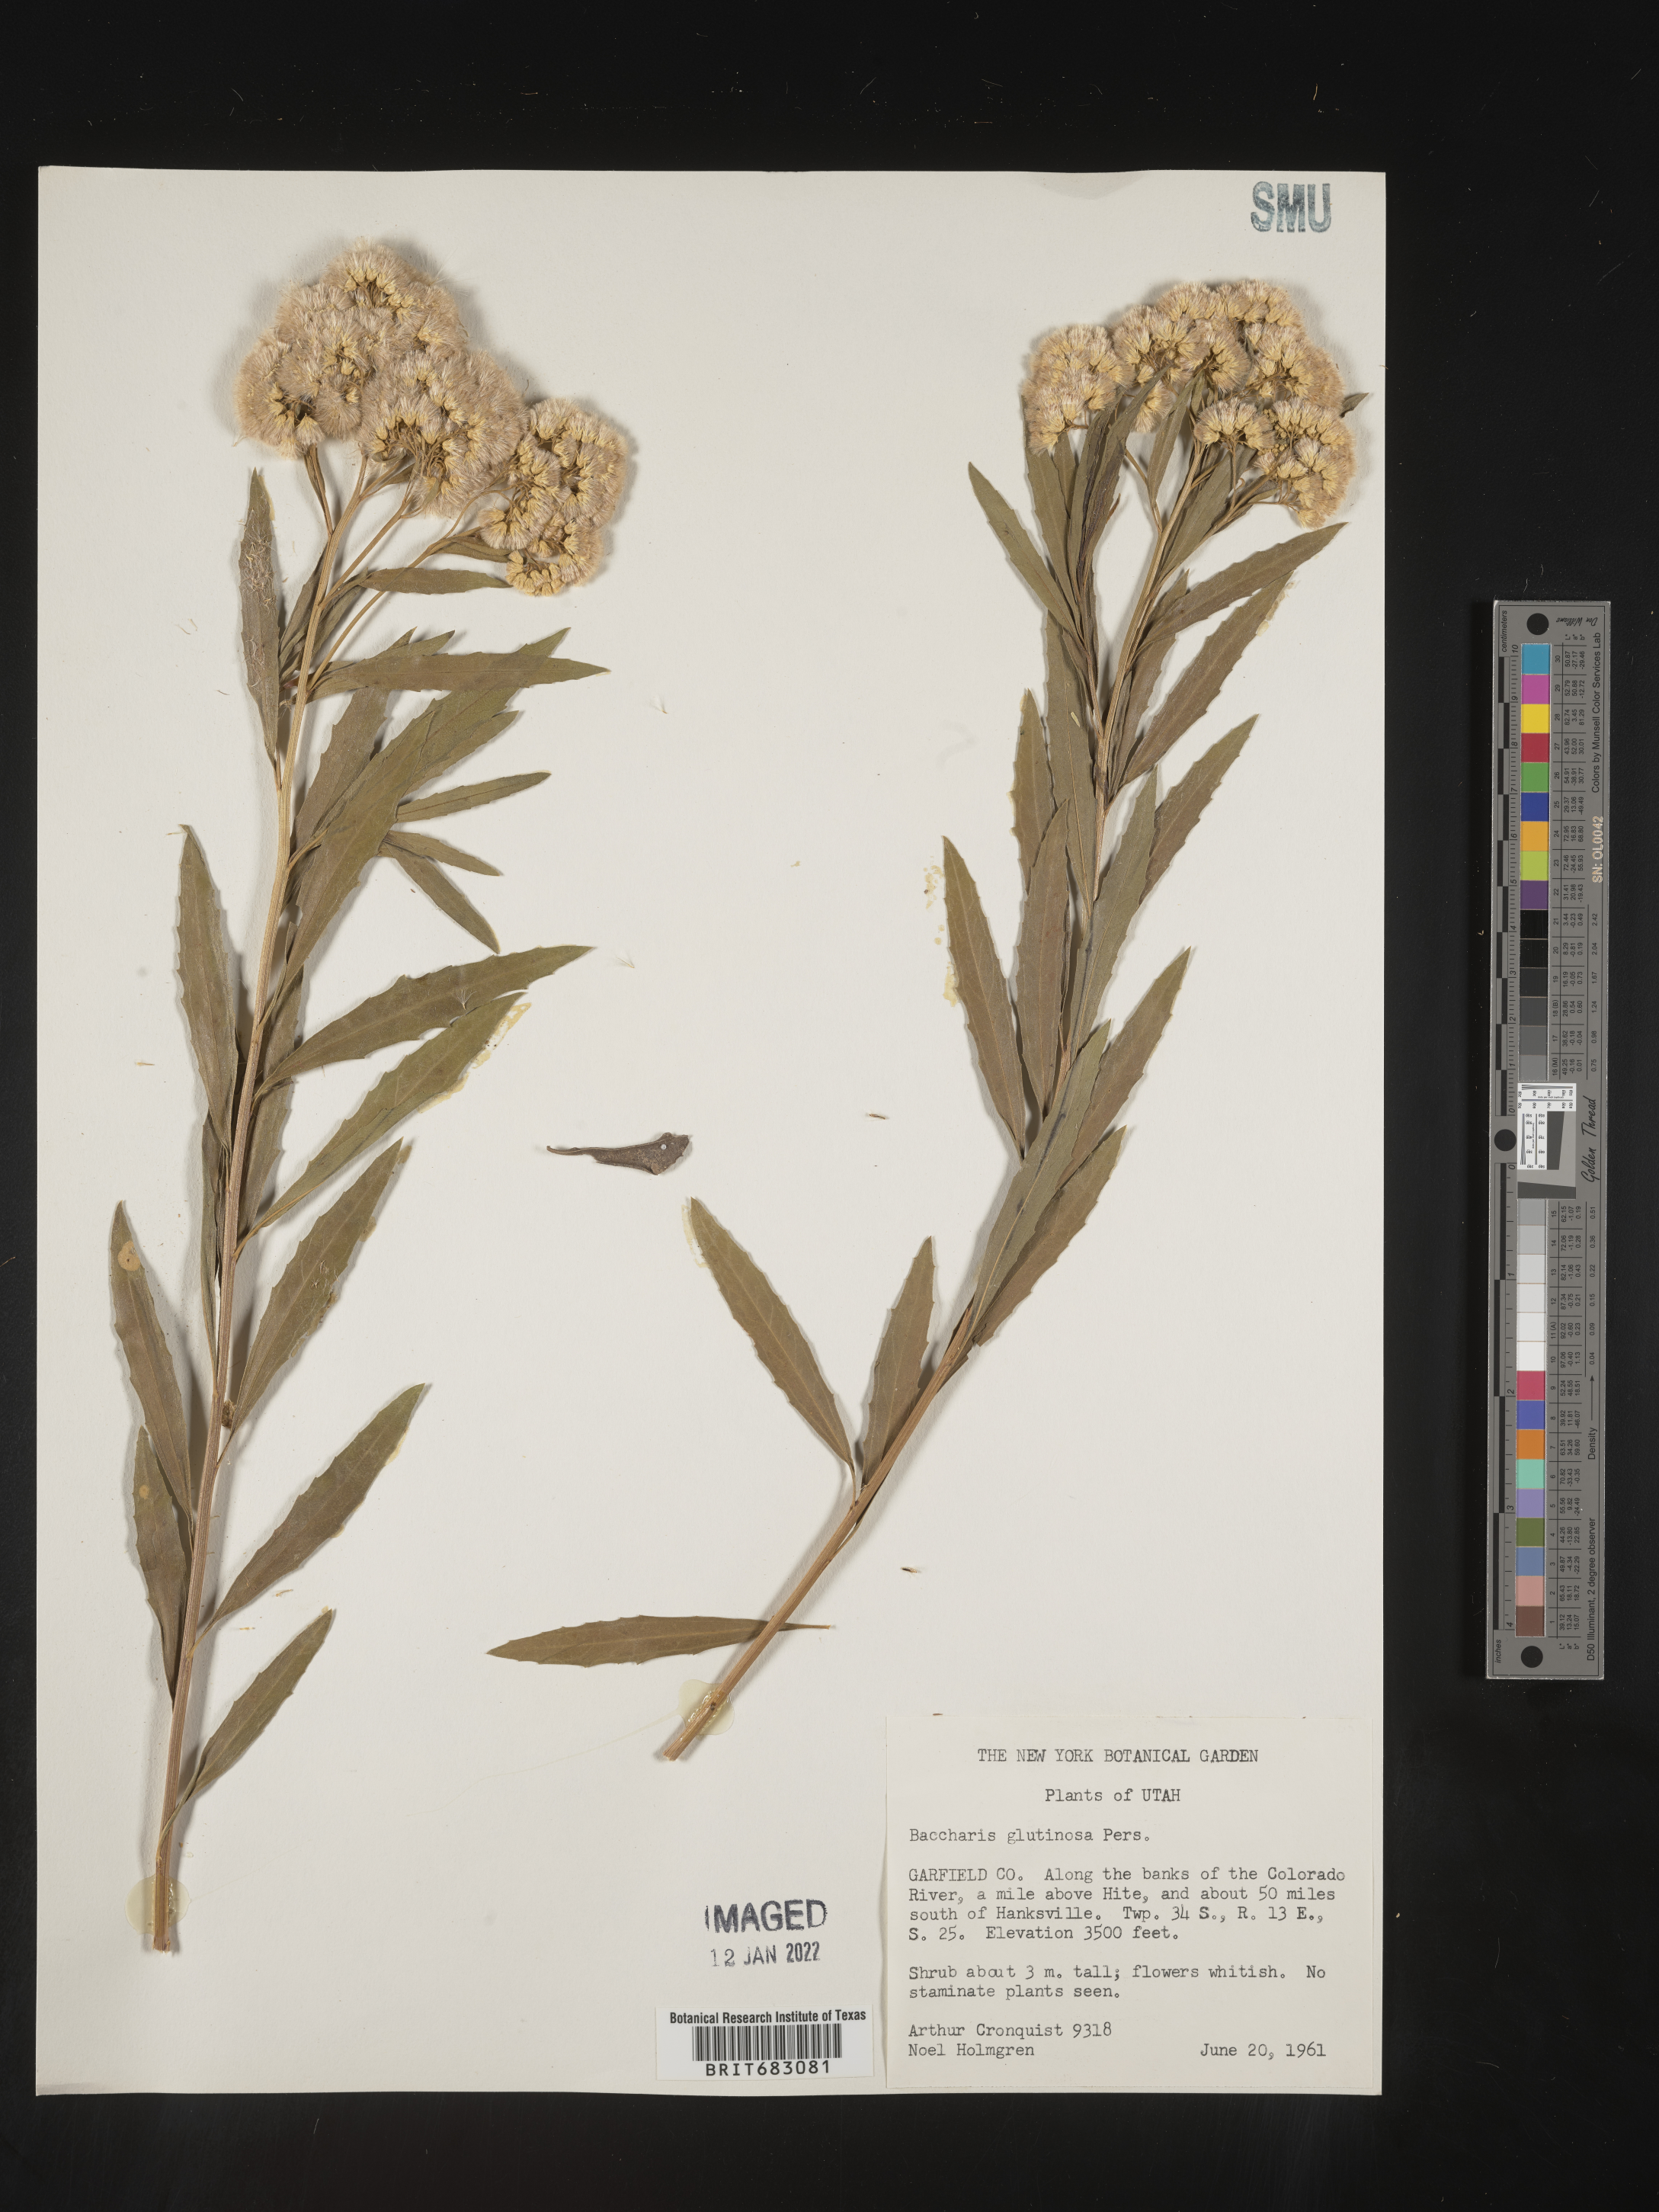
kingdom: Plantae
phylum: Tracheophyta
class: Magnoliopsida
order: Asterales
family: Asteraceae
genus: Baccharis
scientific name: Baccharis salicifolia
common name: Sticky baccharis
